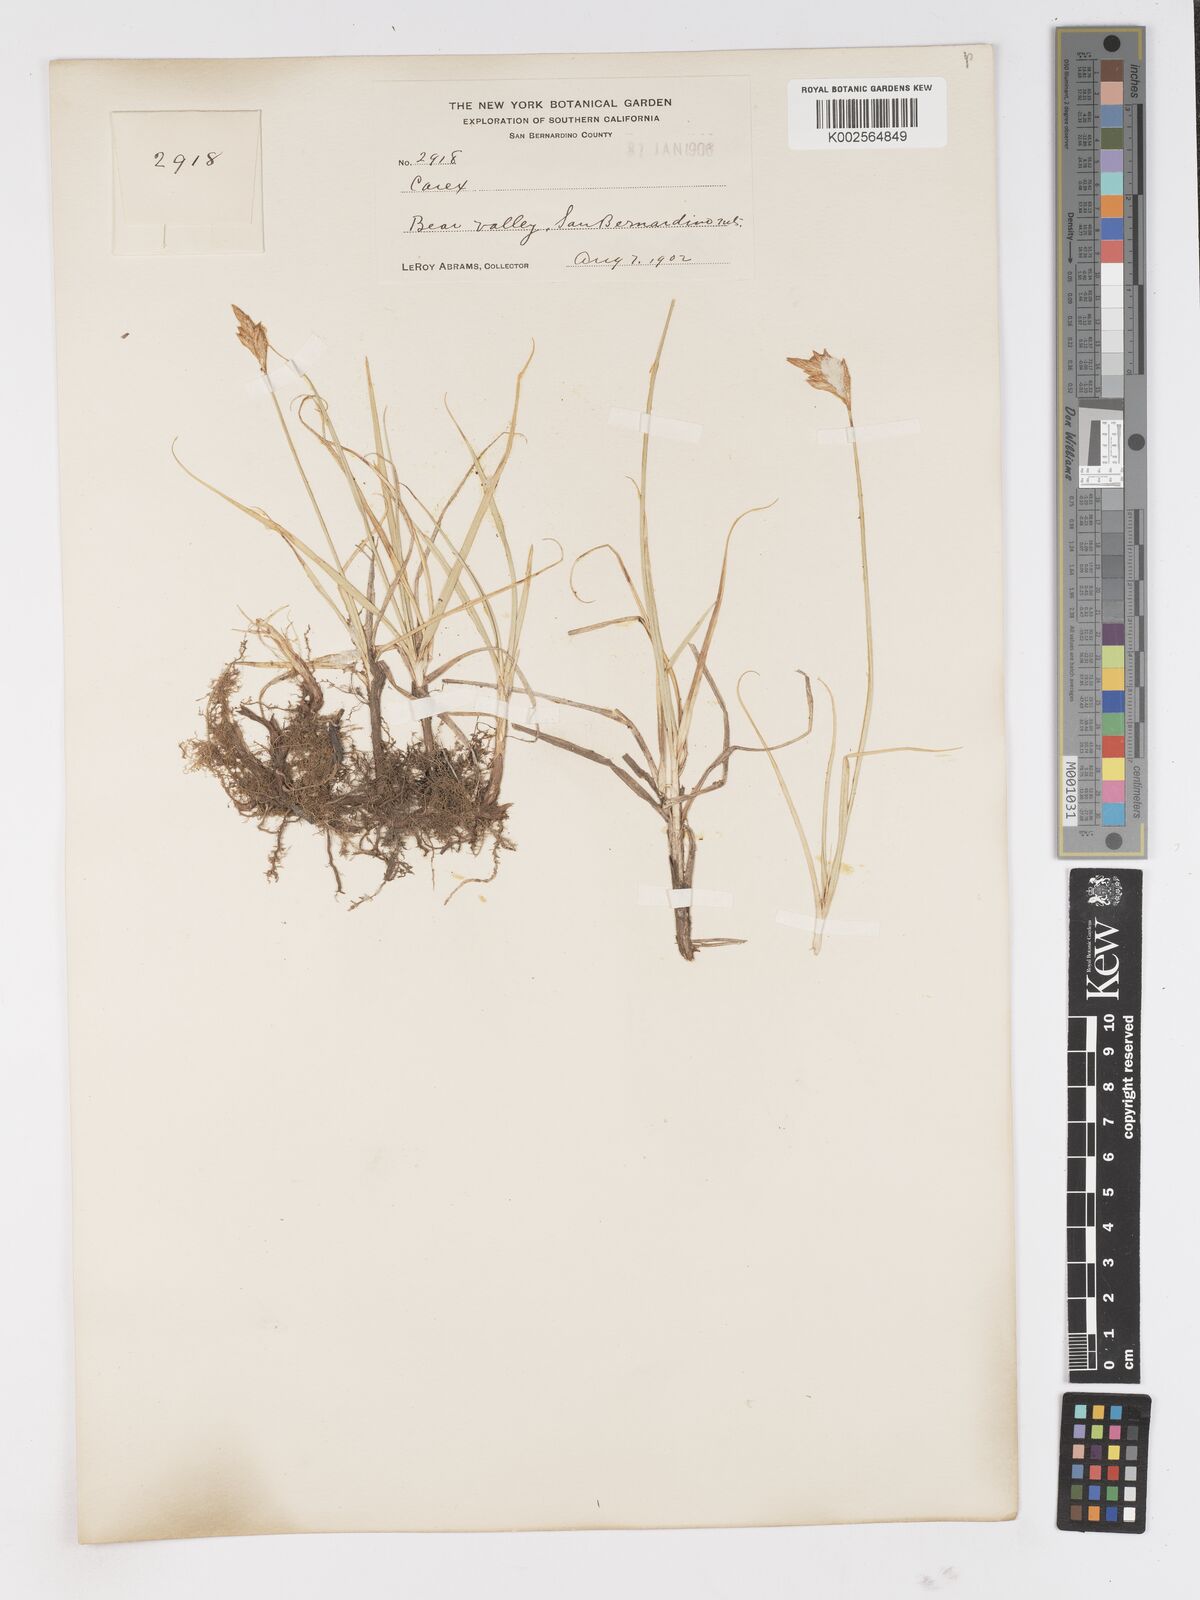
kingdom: Plantae
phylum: Tracheophyta
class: Liliopsida
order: Poales
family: Cyperaceae
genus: Carex
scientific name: Carex
